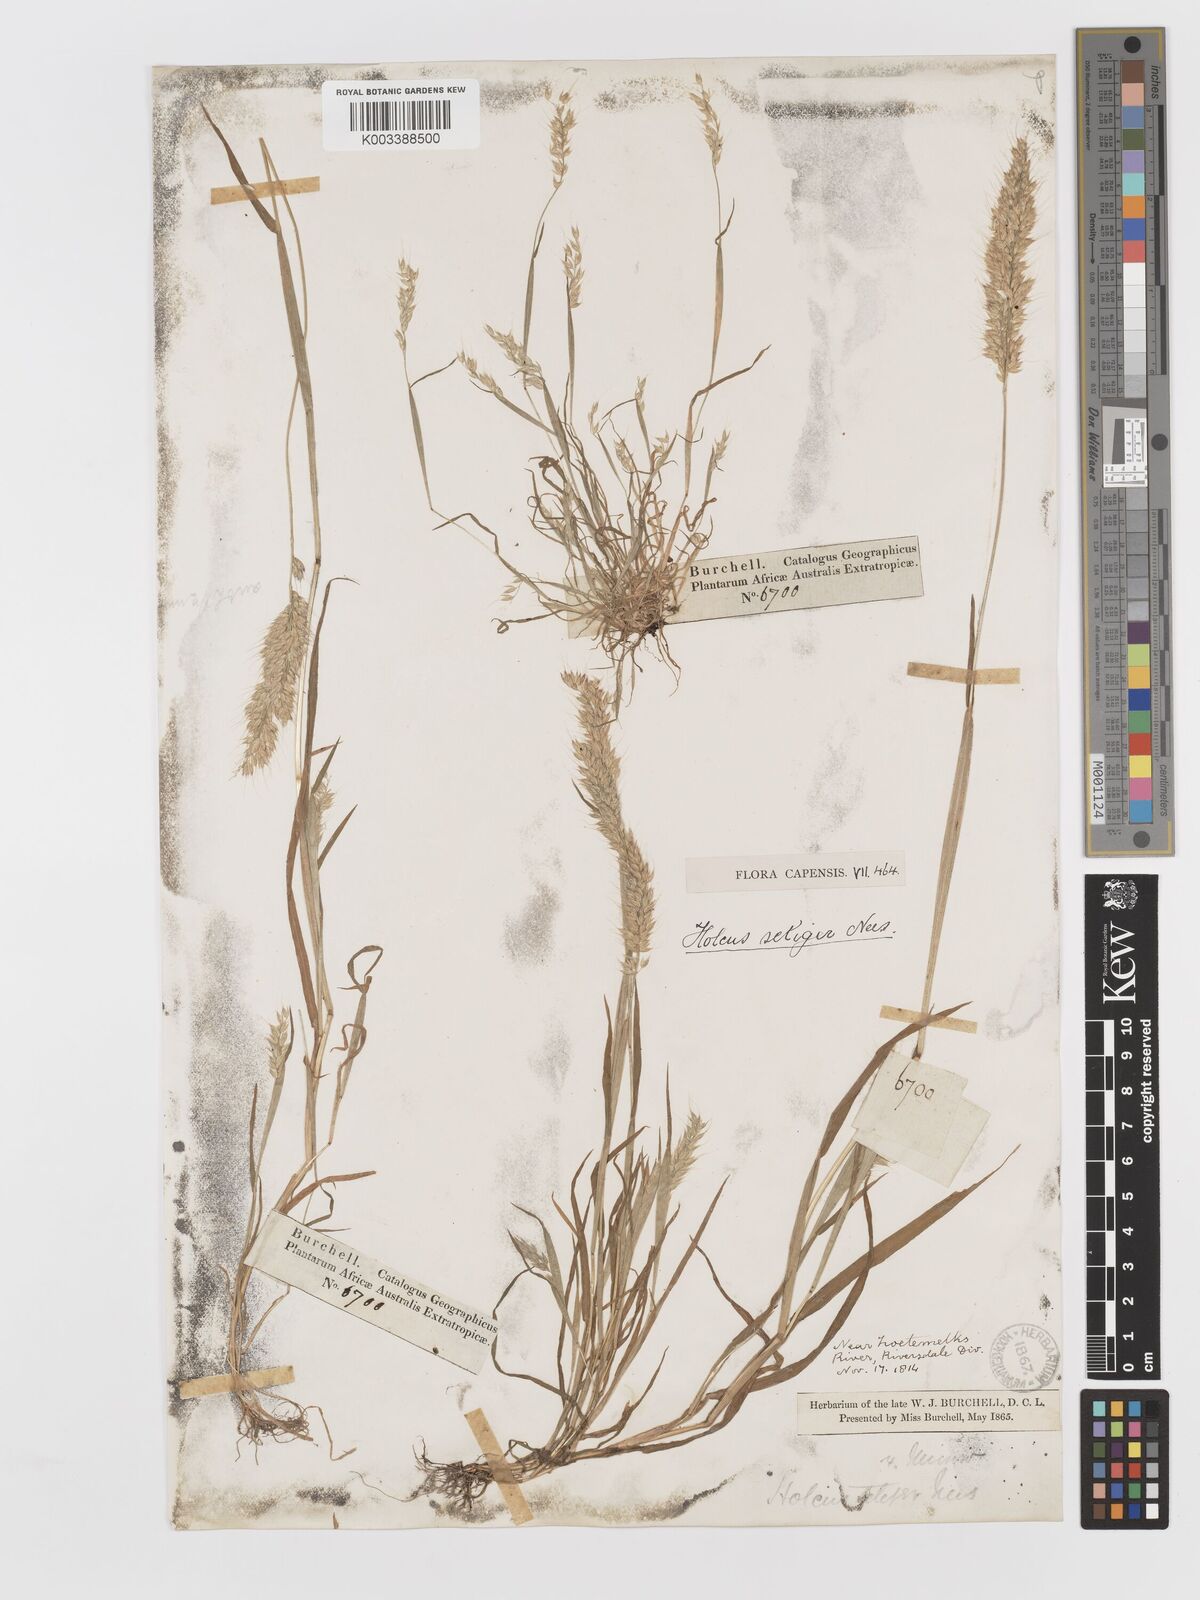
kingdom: Plantae
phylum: Tracheophyta
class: Liliopsida
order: Poales
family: Poaceae
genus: Holcus
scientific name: Holcus setiger
